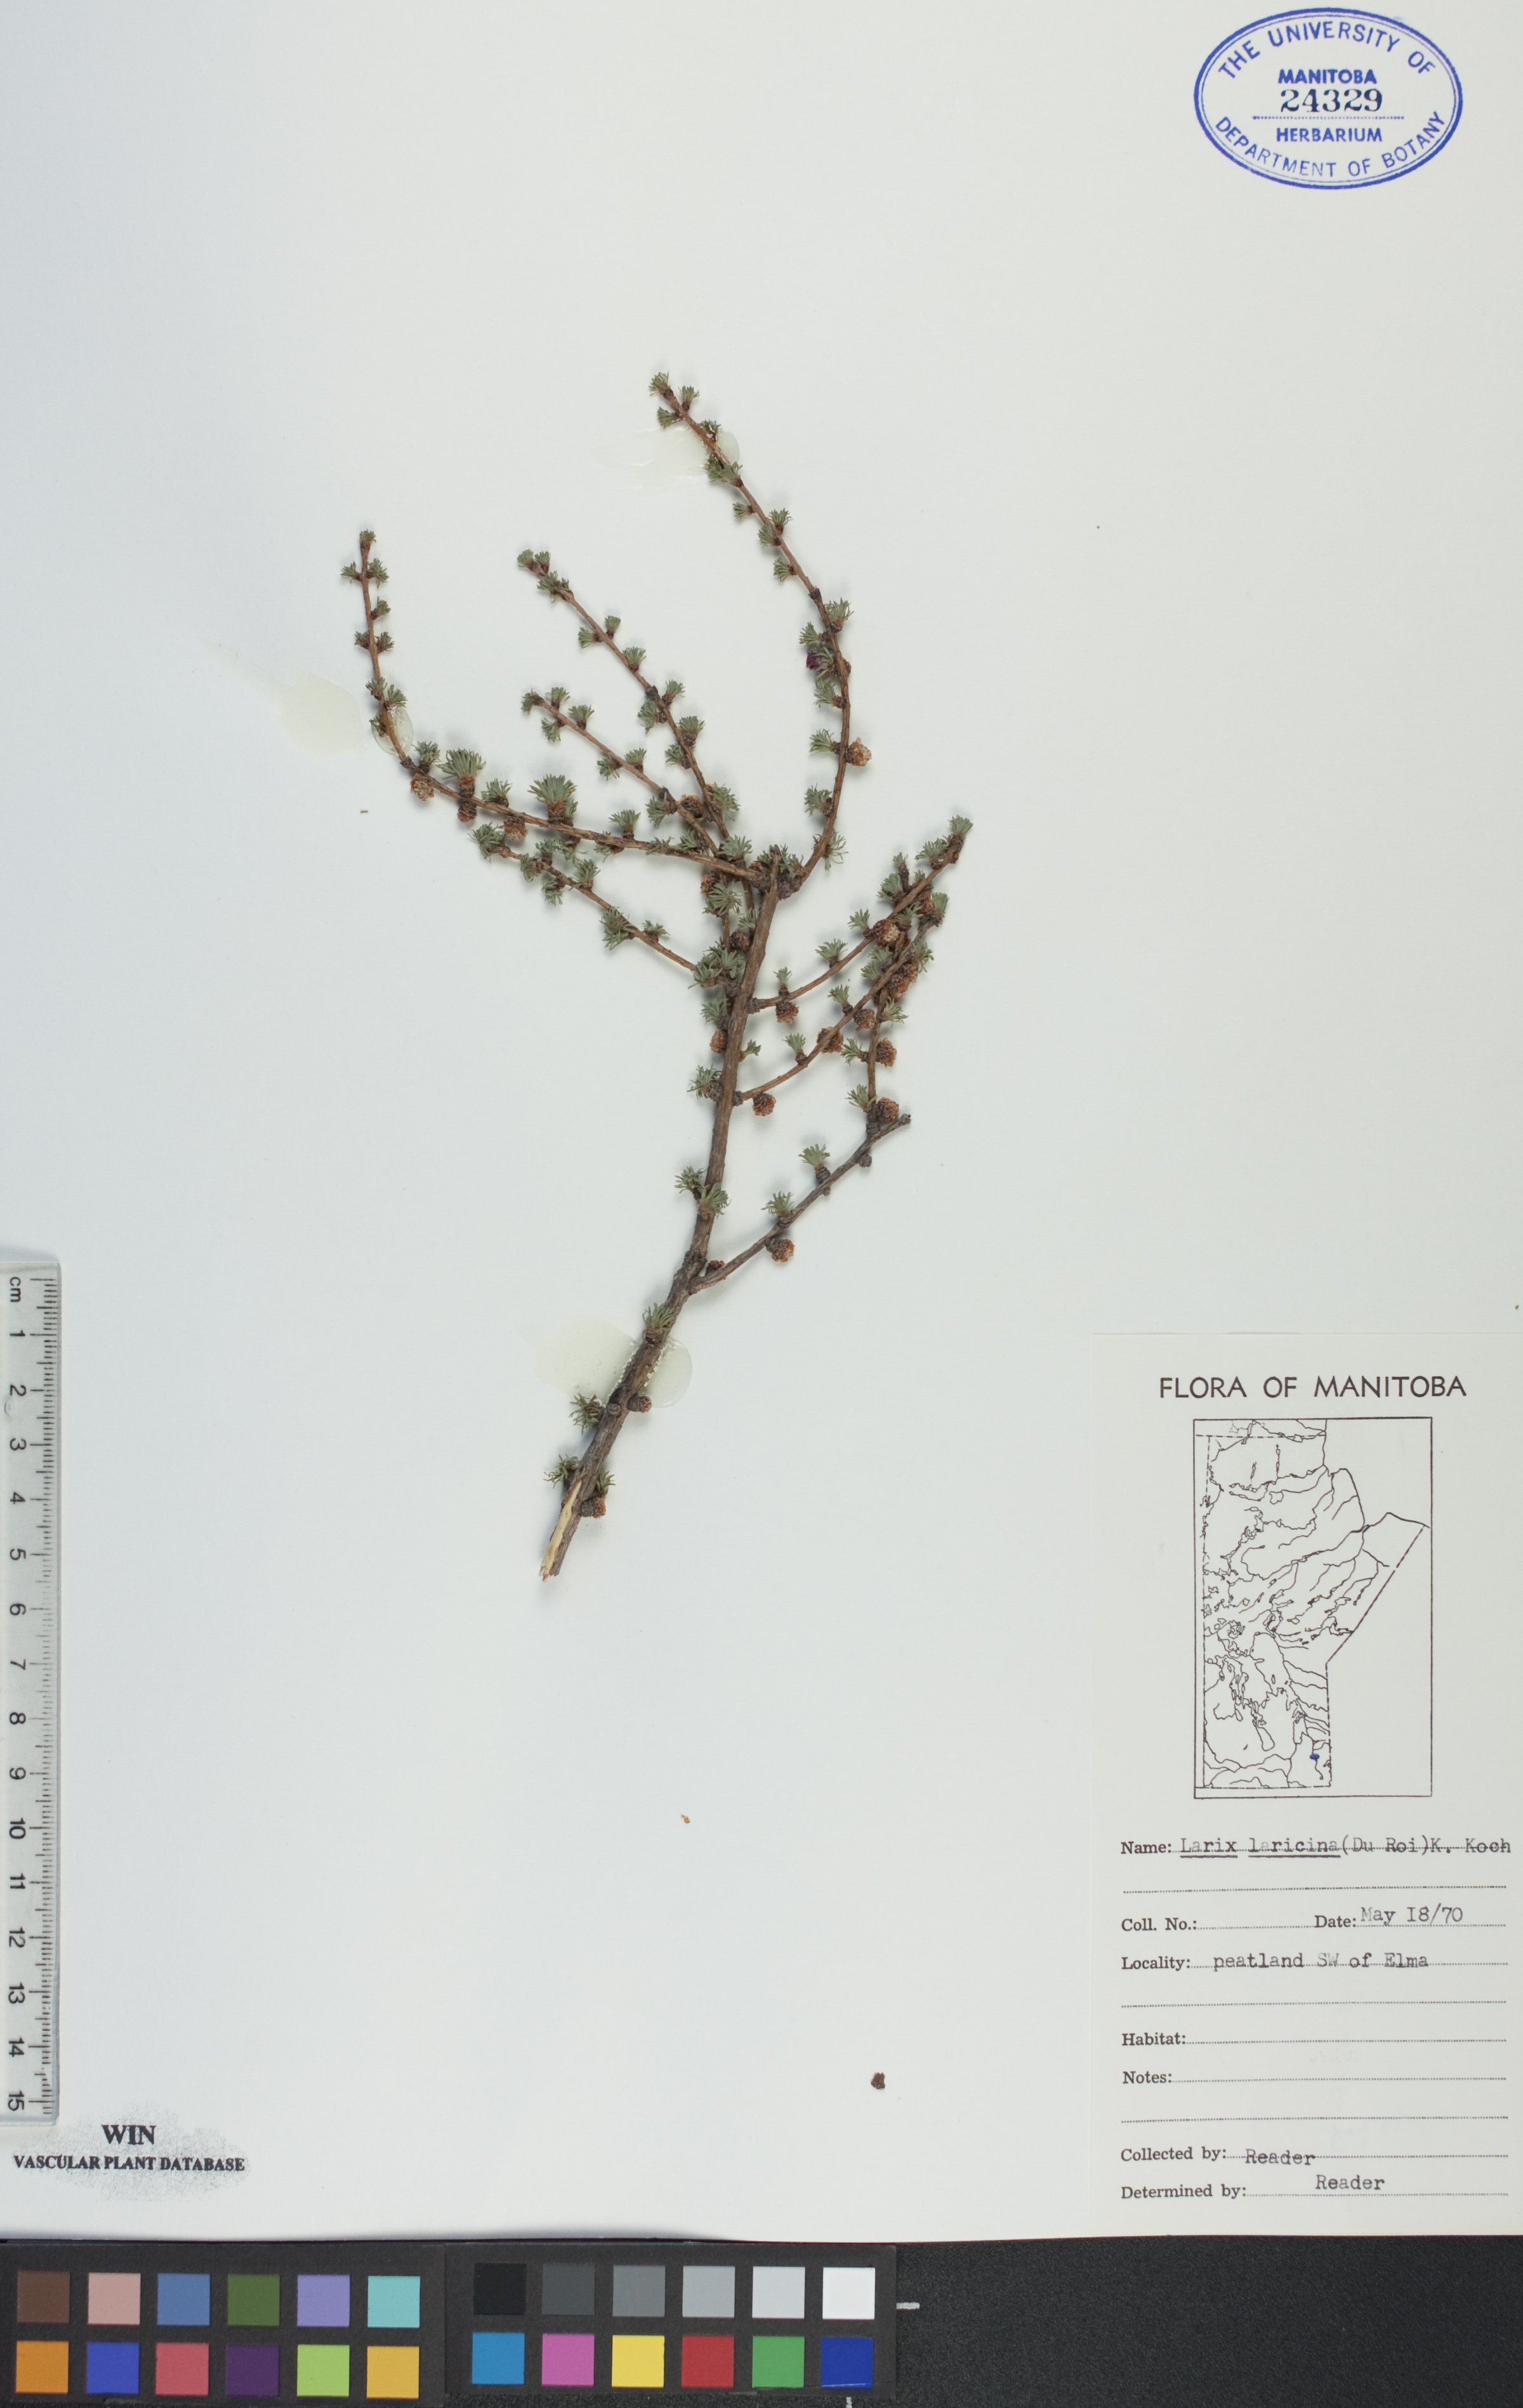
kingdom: Plantae
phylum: Tracheophyta
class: Pinopsida
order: Pinales
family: Pinaceae
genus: Larix
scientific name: Larix laricina
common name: American larch
